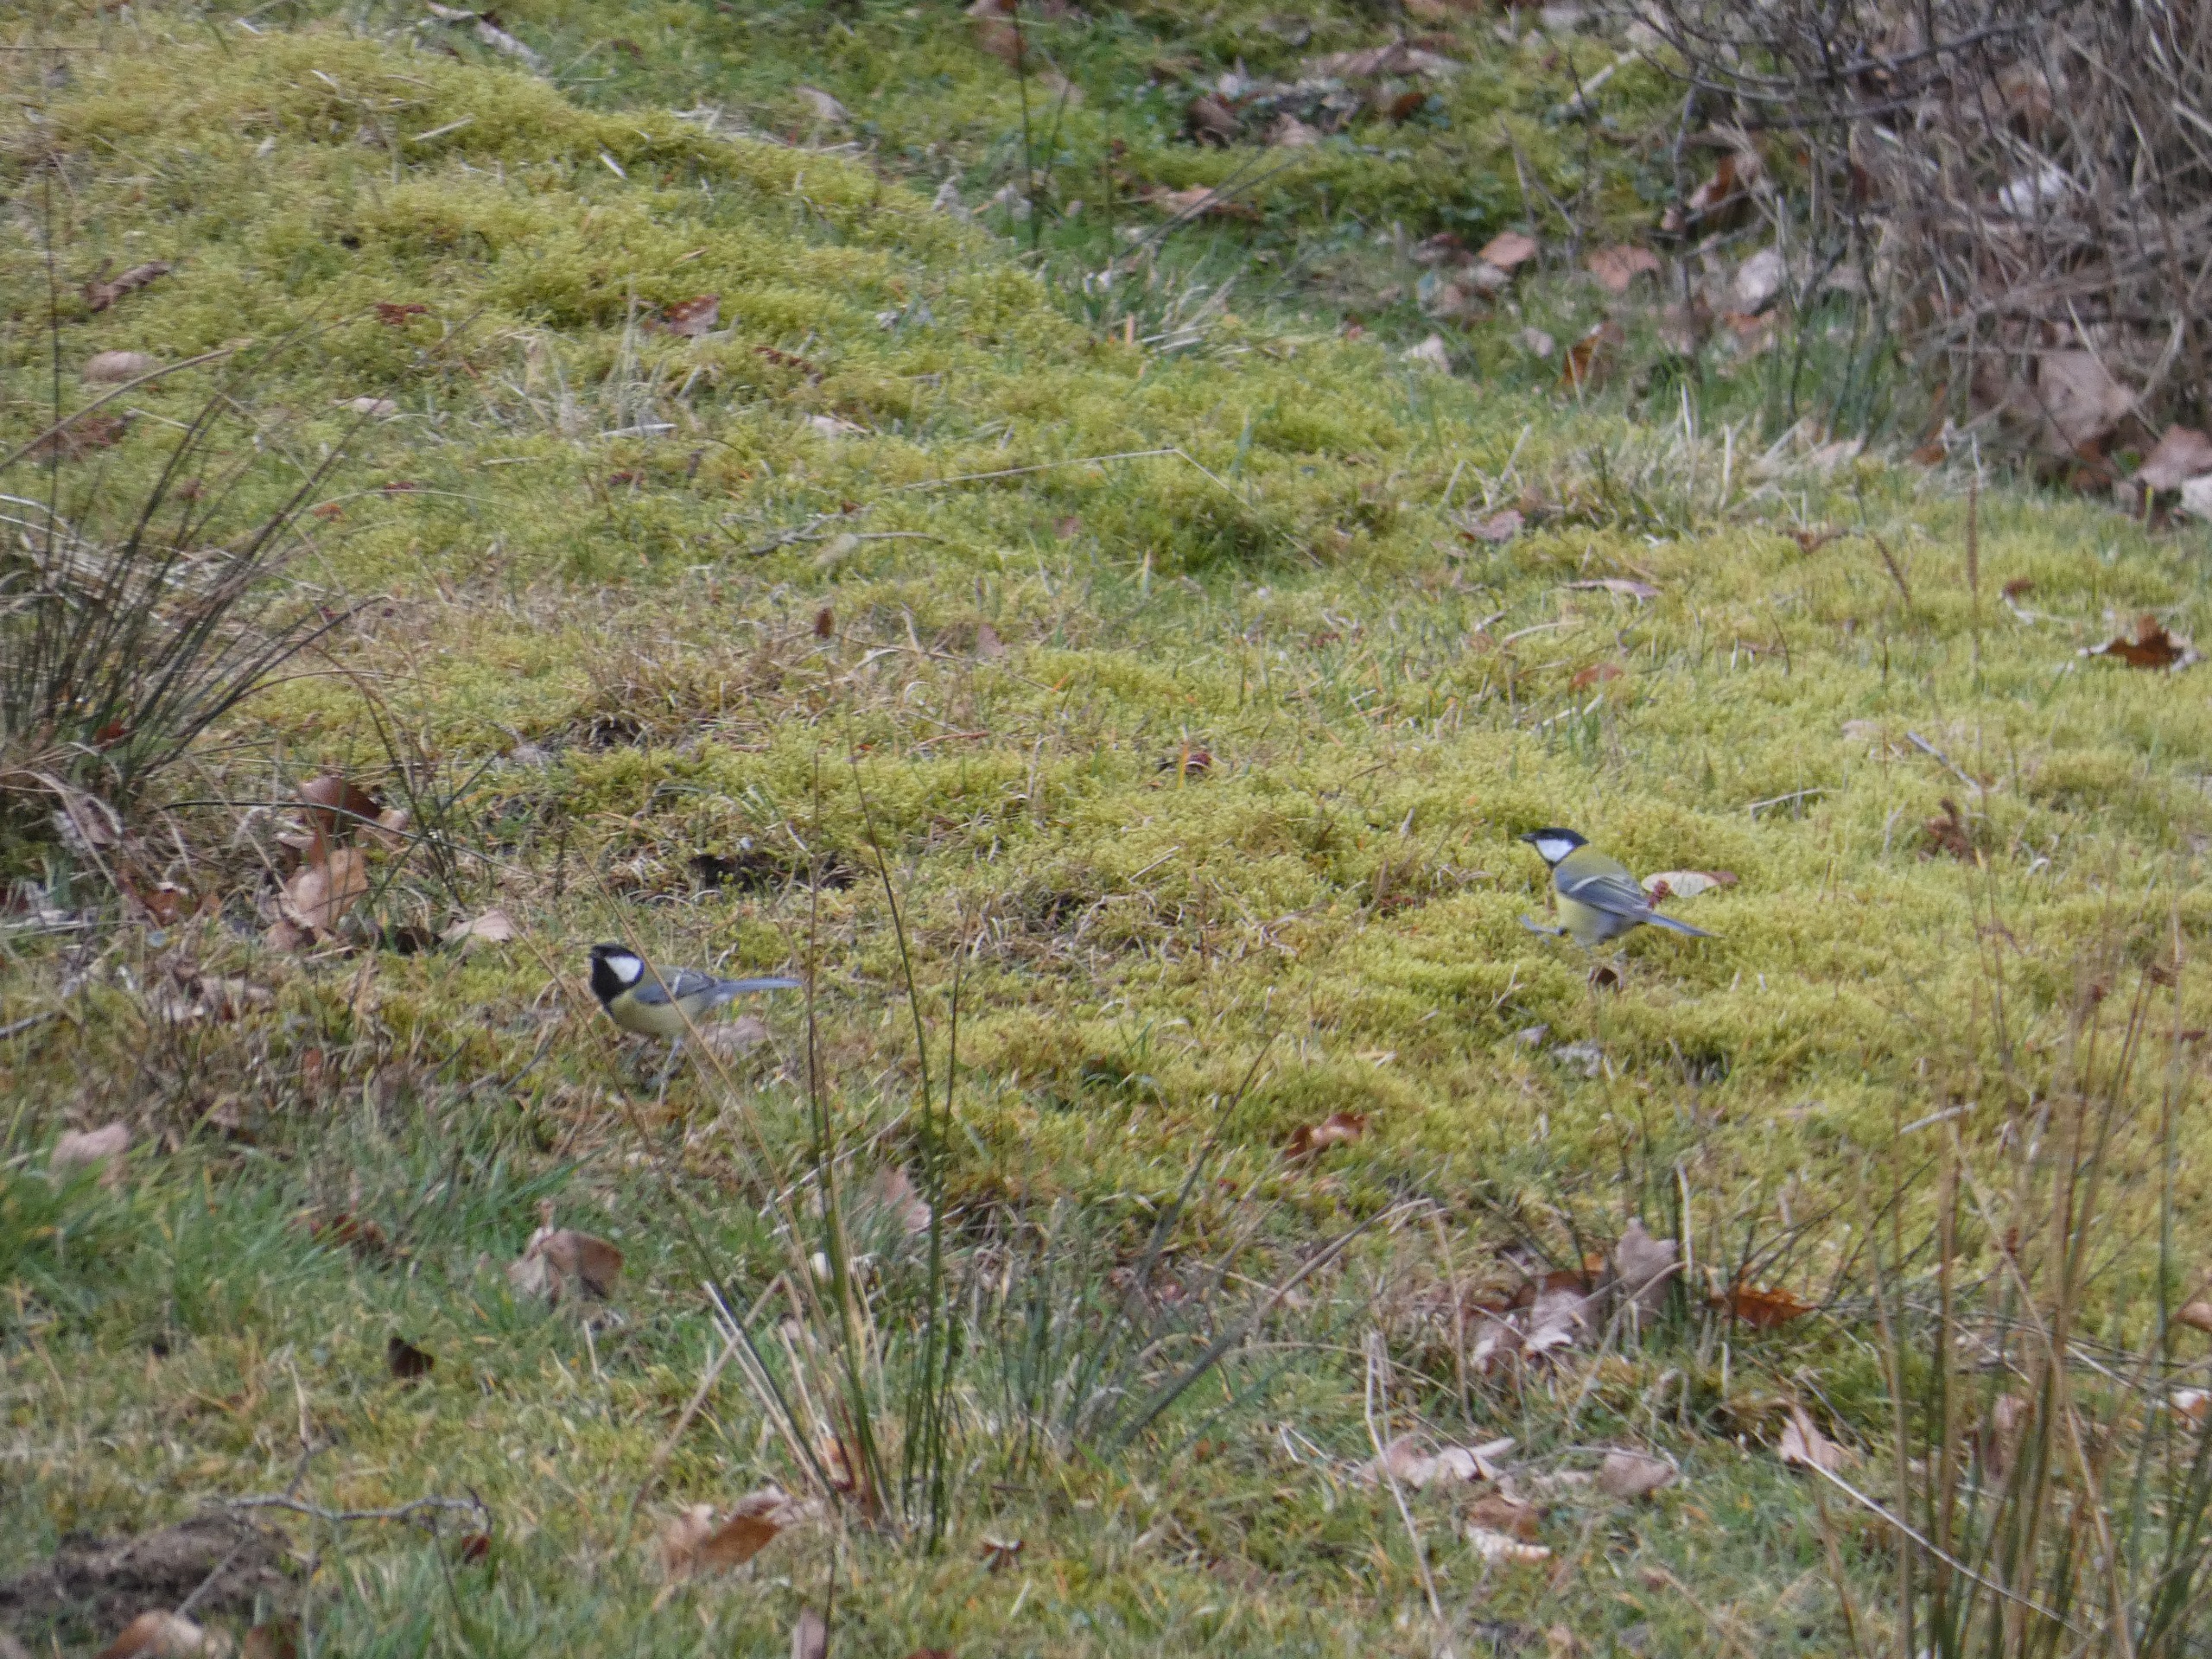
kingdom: Animalia
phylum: Chordata
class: Aves
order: Passeriformes
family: Paridae
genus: Parus
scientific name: Parus major
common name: Musvit
